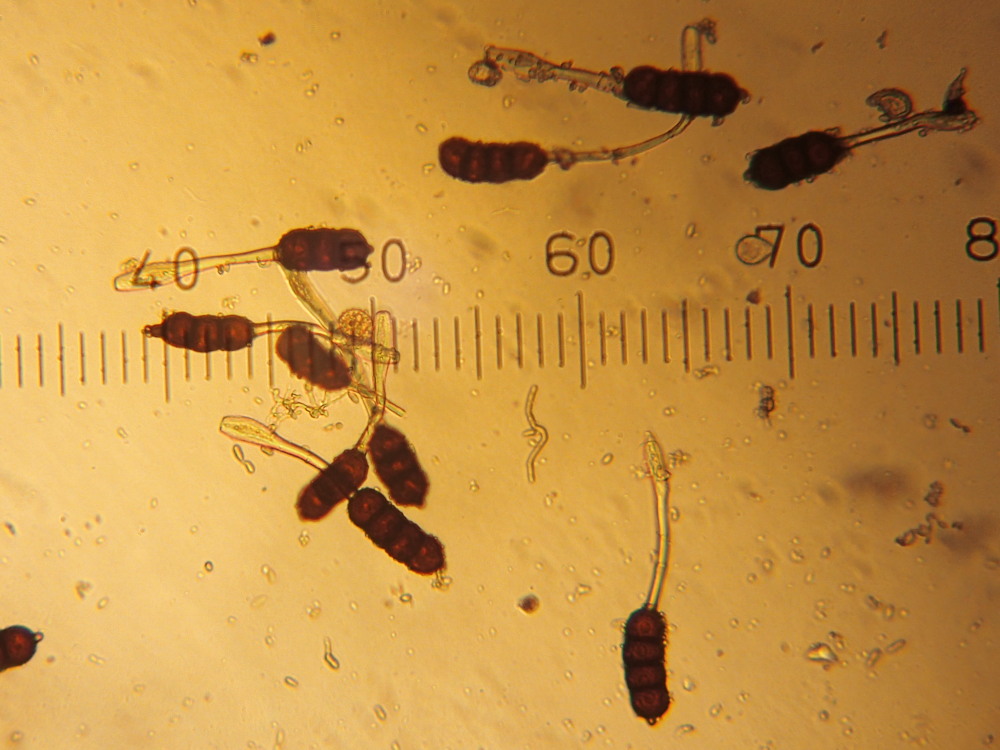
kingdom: Fungi
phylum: Basidiomycota
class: Pucciniomycetes
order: Pucciniales
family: Phragmidiaceae
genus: Phragmidium
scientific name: Phragmidium violaceum
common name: violet flercellerust
